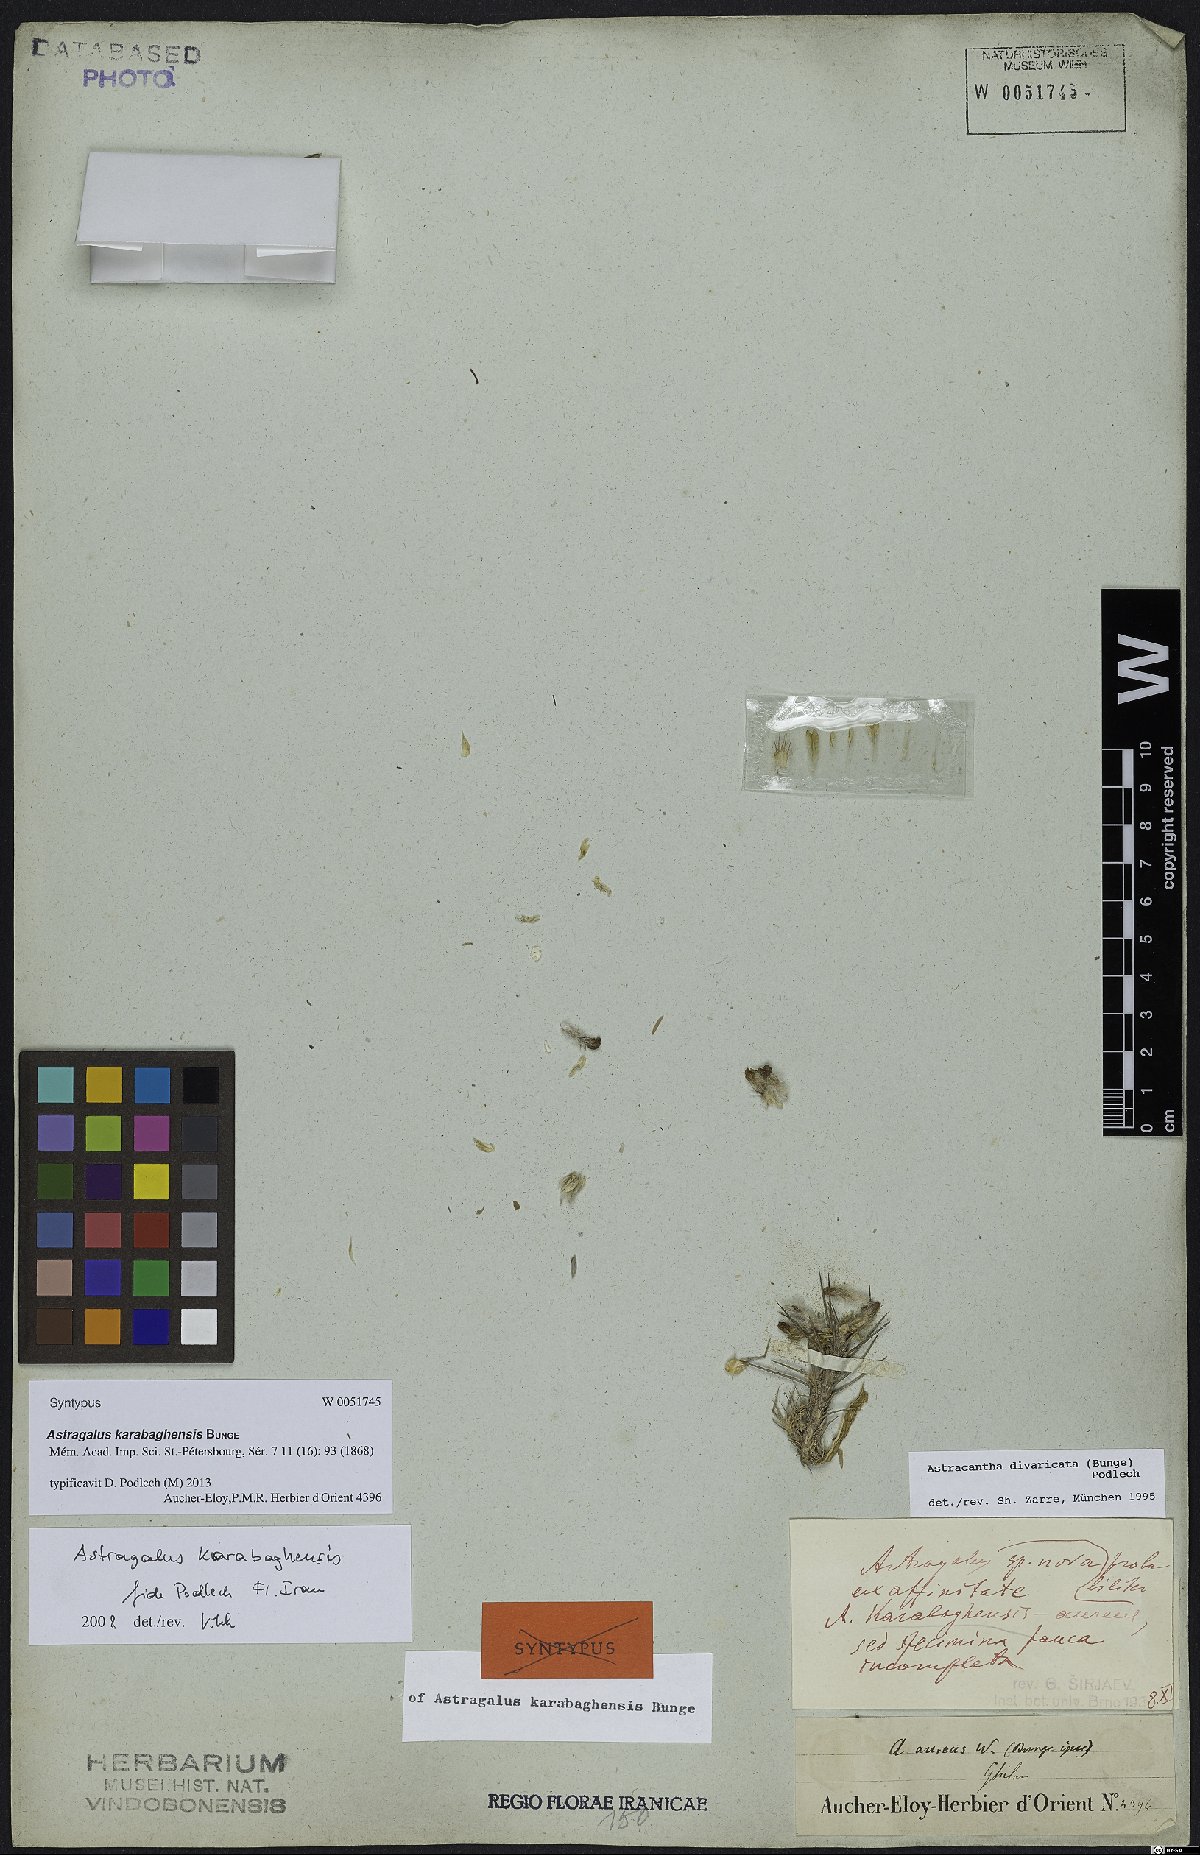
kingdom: Plantae
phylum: Tracheophyta
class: Magnoliopsida
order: Fabales
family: Fabaceae
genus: Astragalus
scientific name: Astragalus karabaghensis
